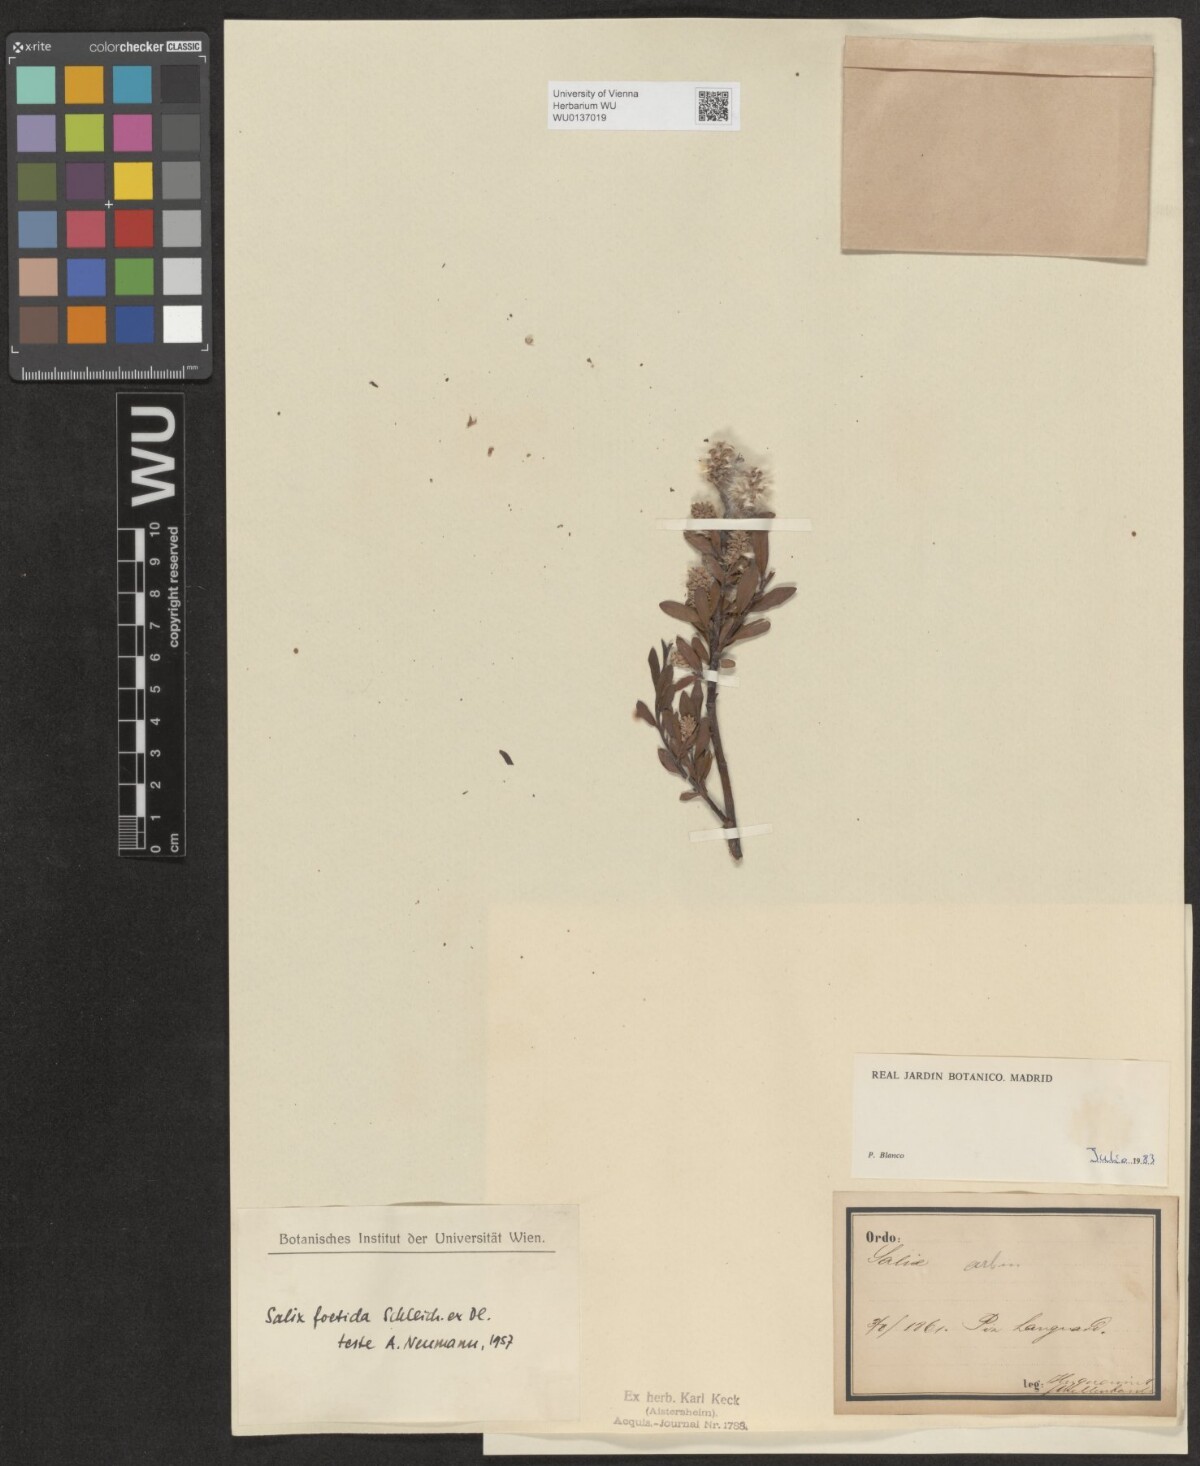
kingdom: Plantae
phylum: Tracheophyta
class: Magnoliopsida
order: Malpighiales
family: Salicaceae
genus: Salix
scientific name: Salix foetida
